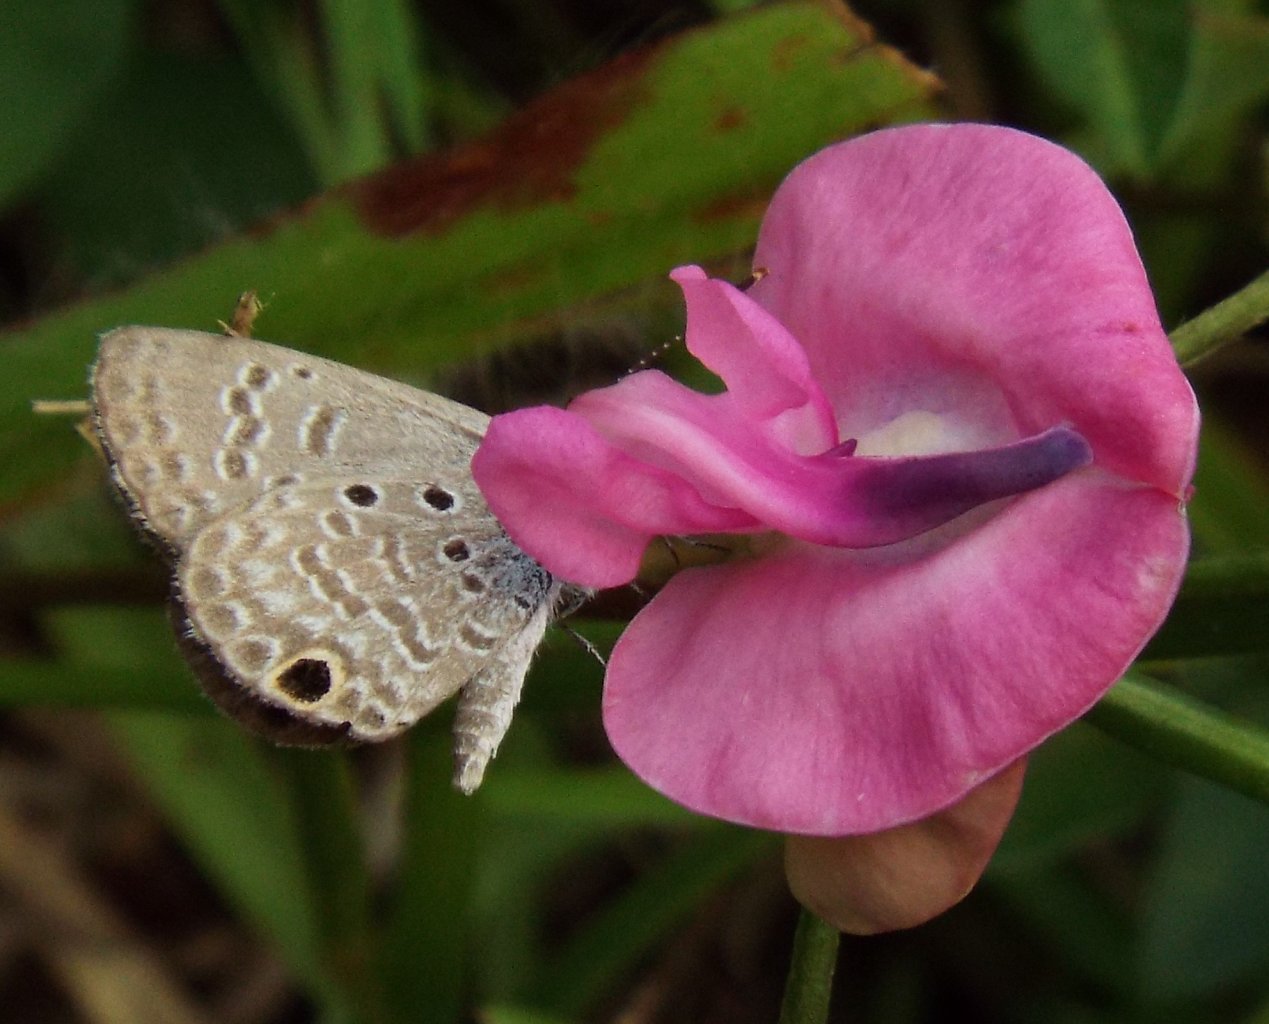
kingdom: Animalia
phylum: Arthropoda
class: Insecta
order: Lepidoptera
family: Lycaenidae
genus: Hemiargus
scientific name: Hemiargus ceraunus
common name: Ceraunus Blue
